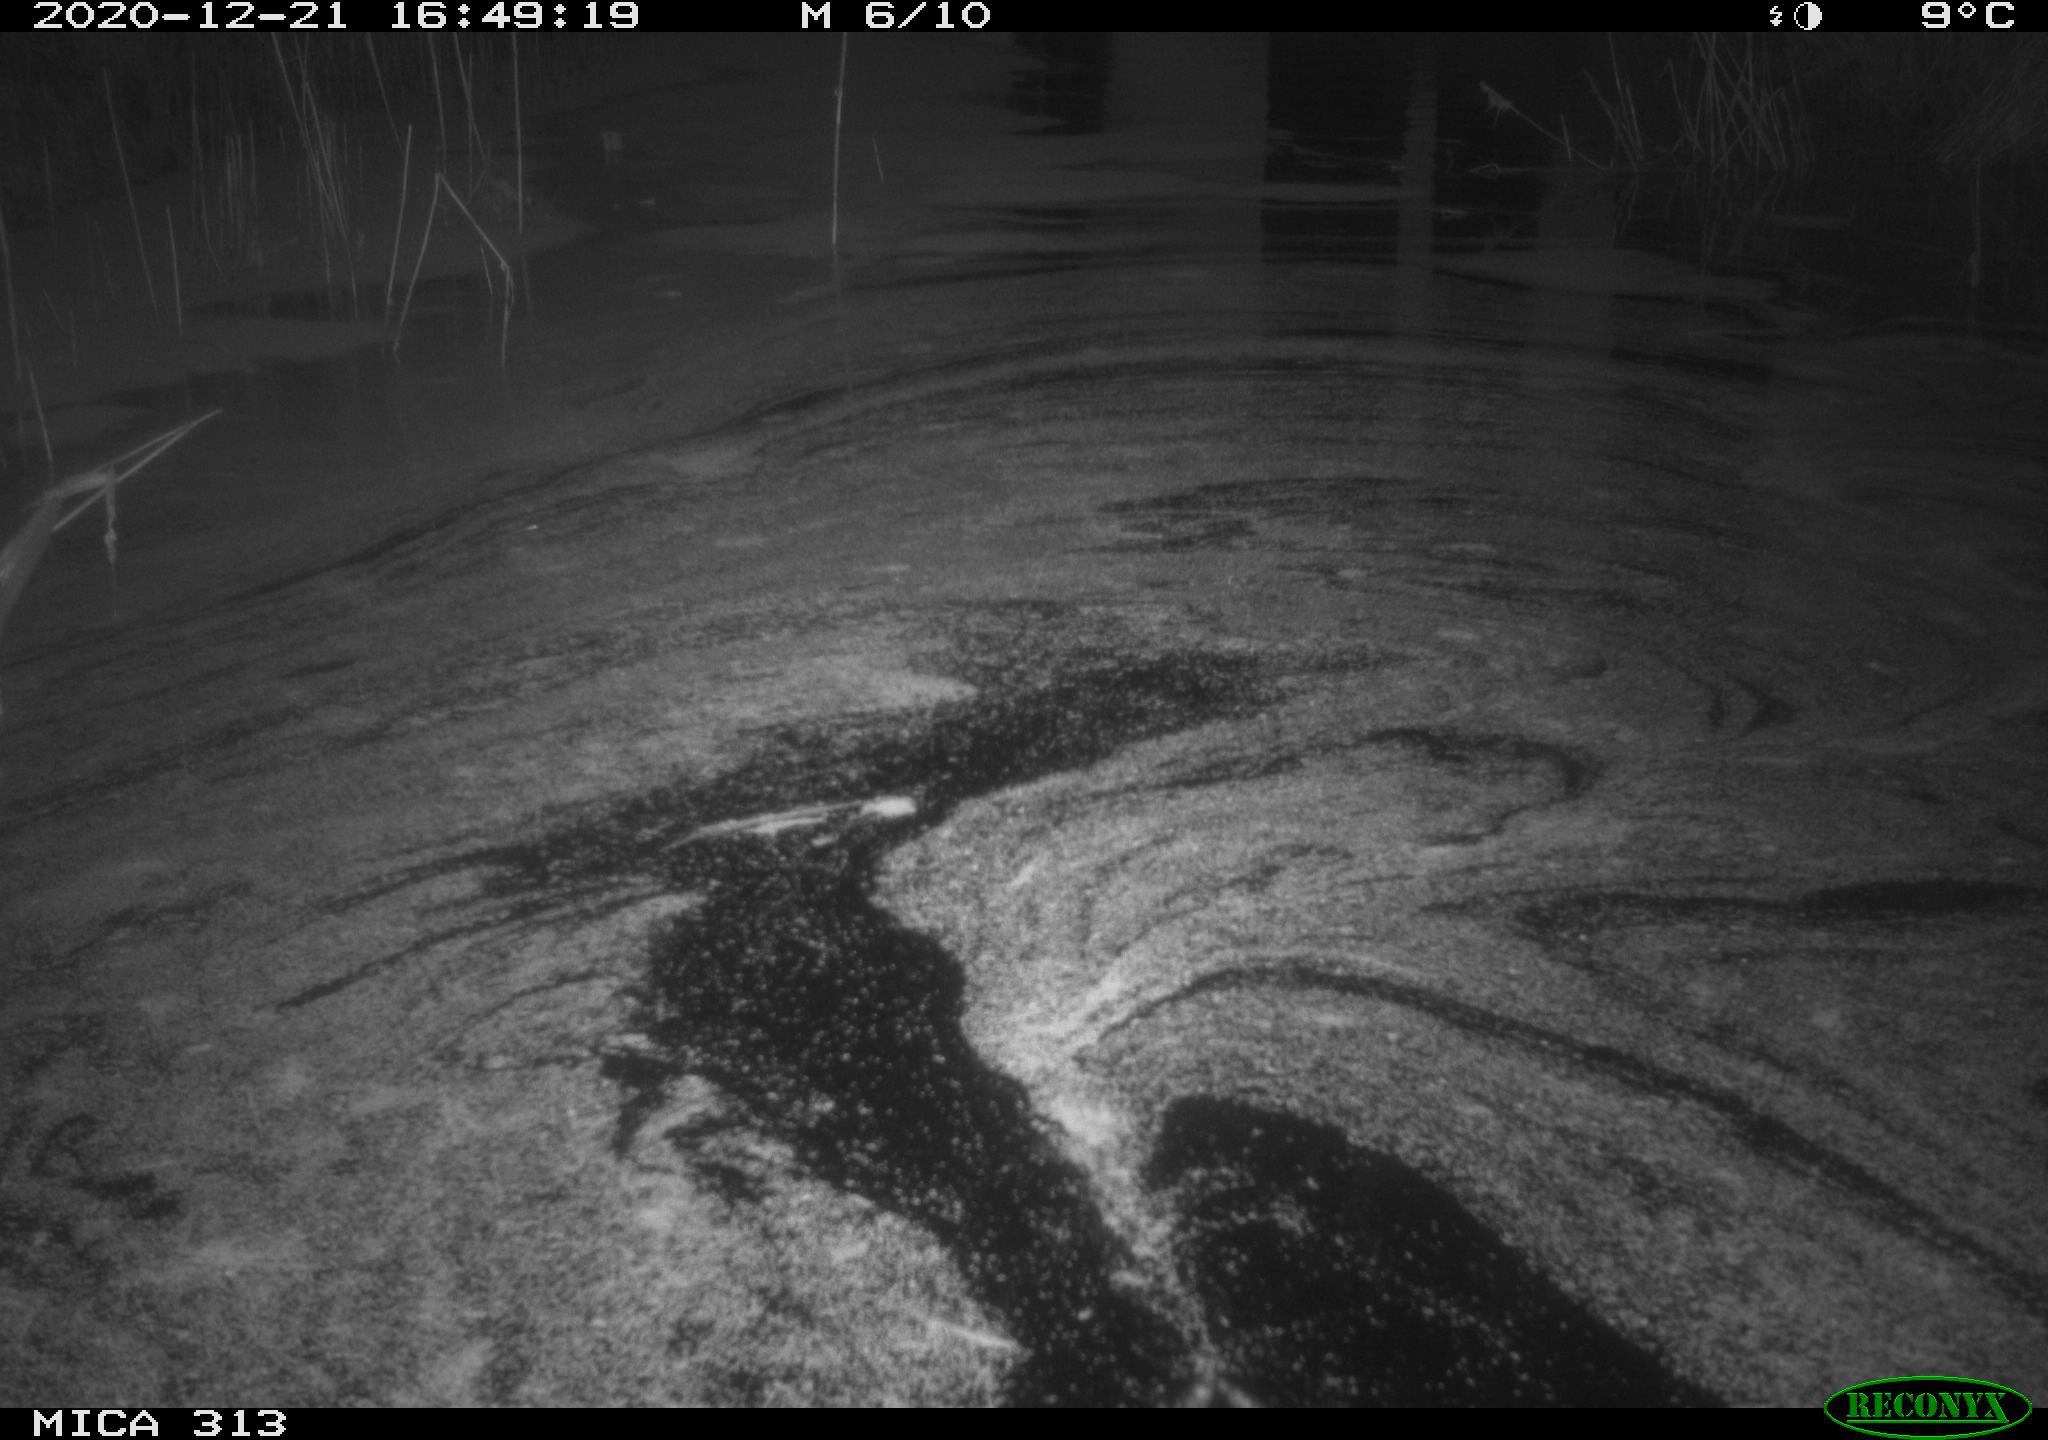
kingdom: Animalia
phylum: Chordata
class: Aves
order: Gruiformes
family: Rallidae
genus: Gallinula
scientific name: Gallinula chloropus
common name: Common moorhen
